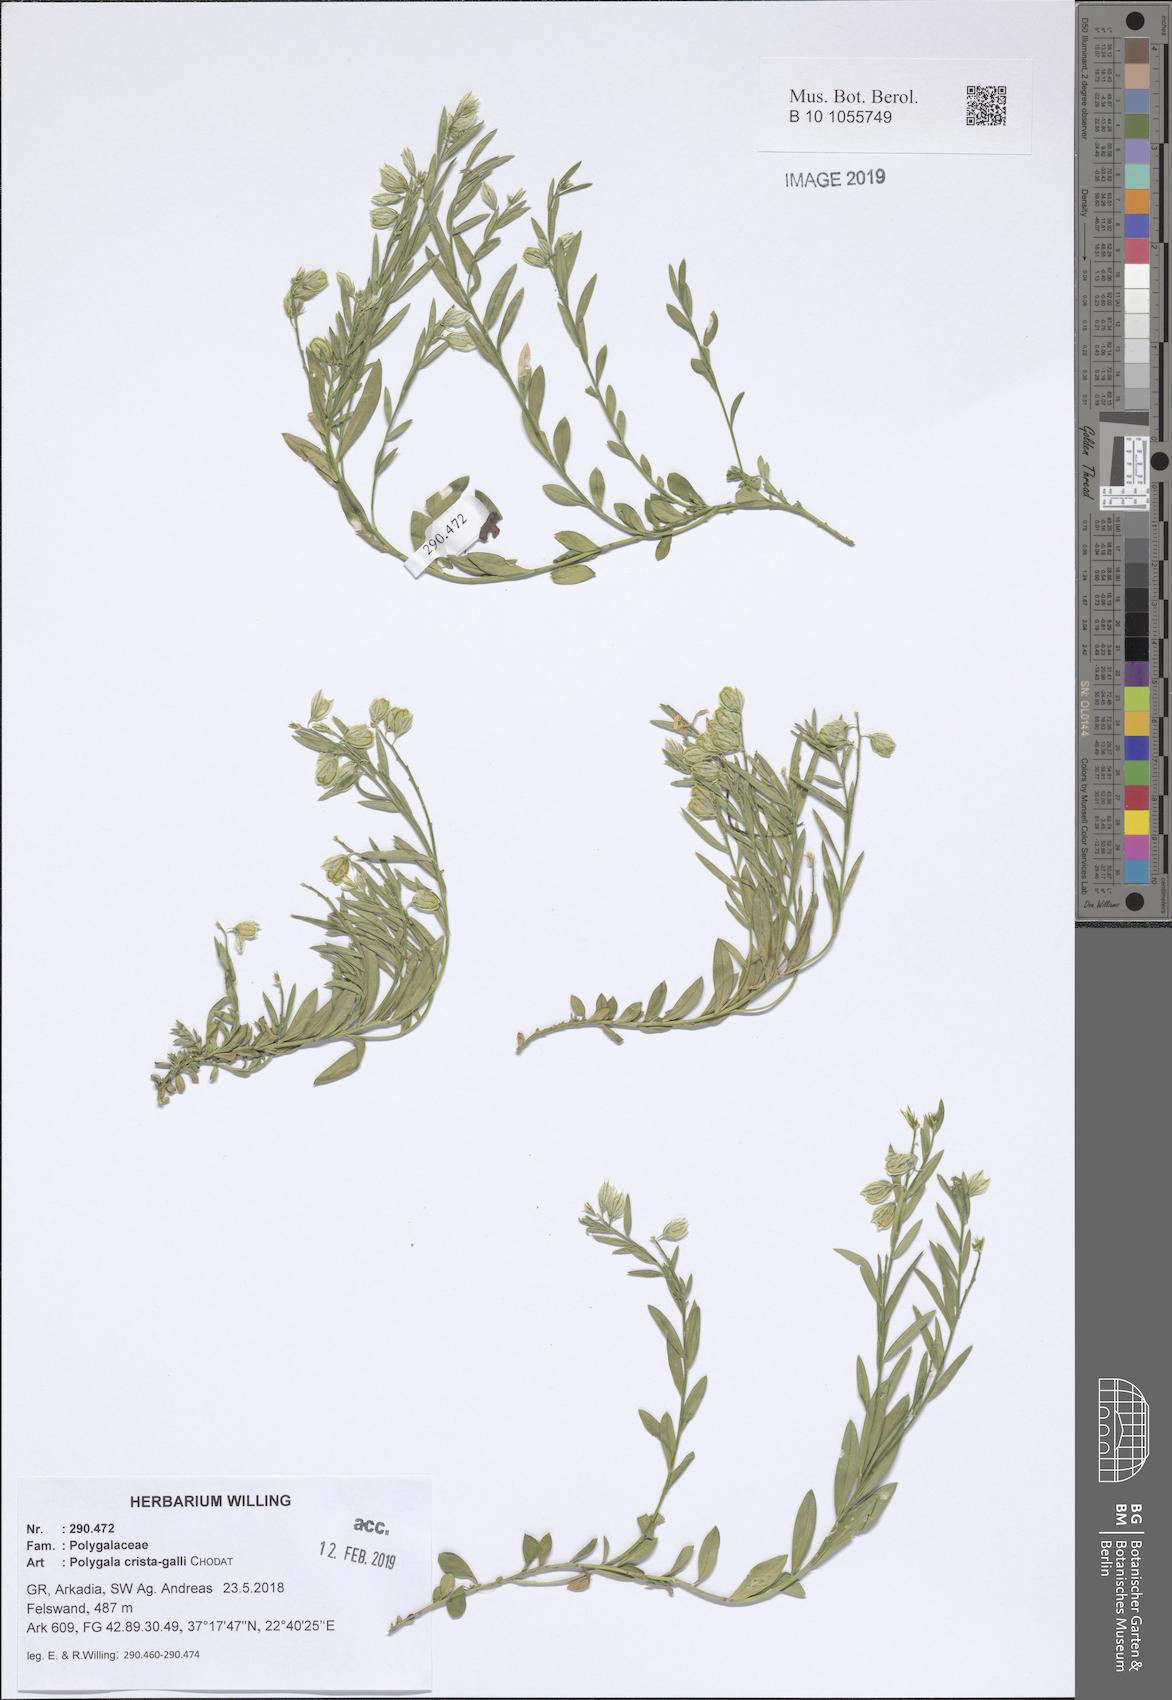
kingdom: Plantae
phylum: Tracheophyta
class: Magnoliopsida
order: Fabales
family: Polygalaceae
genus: Polygala
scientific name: Polygala crista-galli
